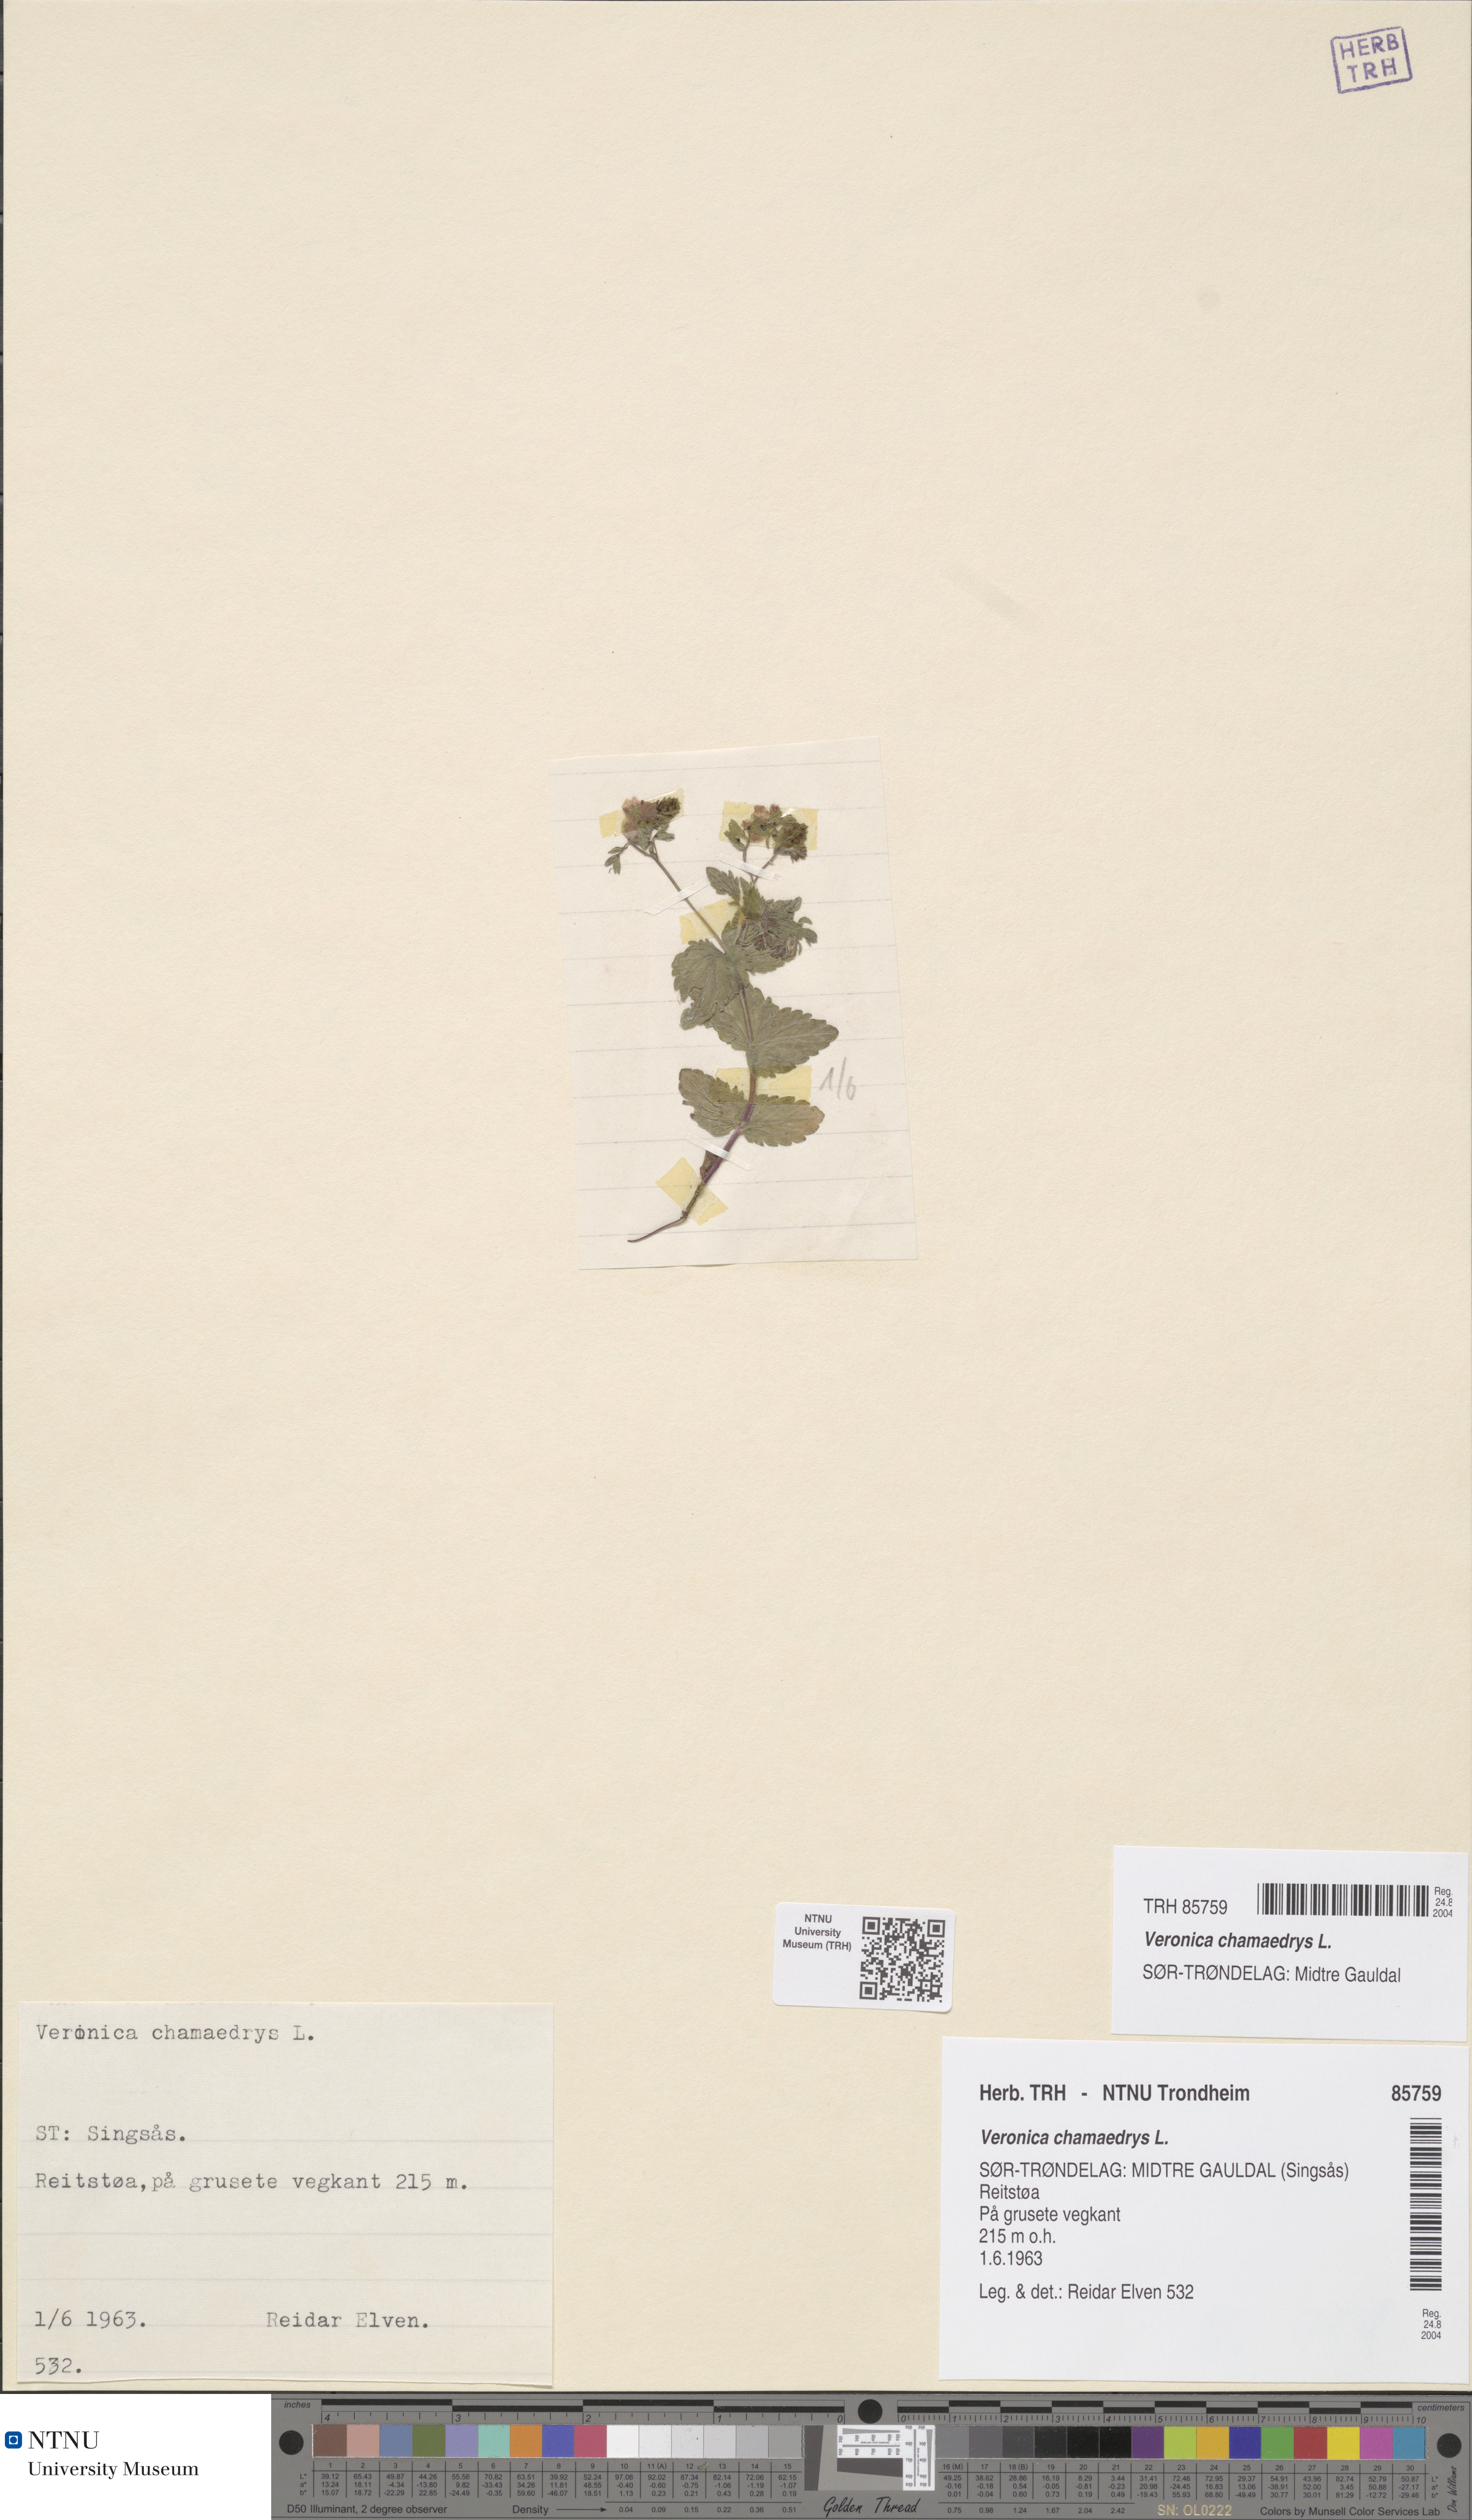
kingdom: Plantae
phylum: Tracheophyta
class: Magnoliopsida
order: Lamiales
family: Plantaginaceae
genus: Veronica
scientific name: Veronica chamaedrys
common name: Germander speedwell
